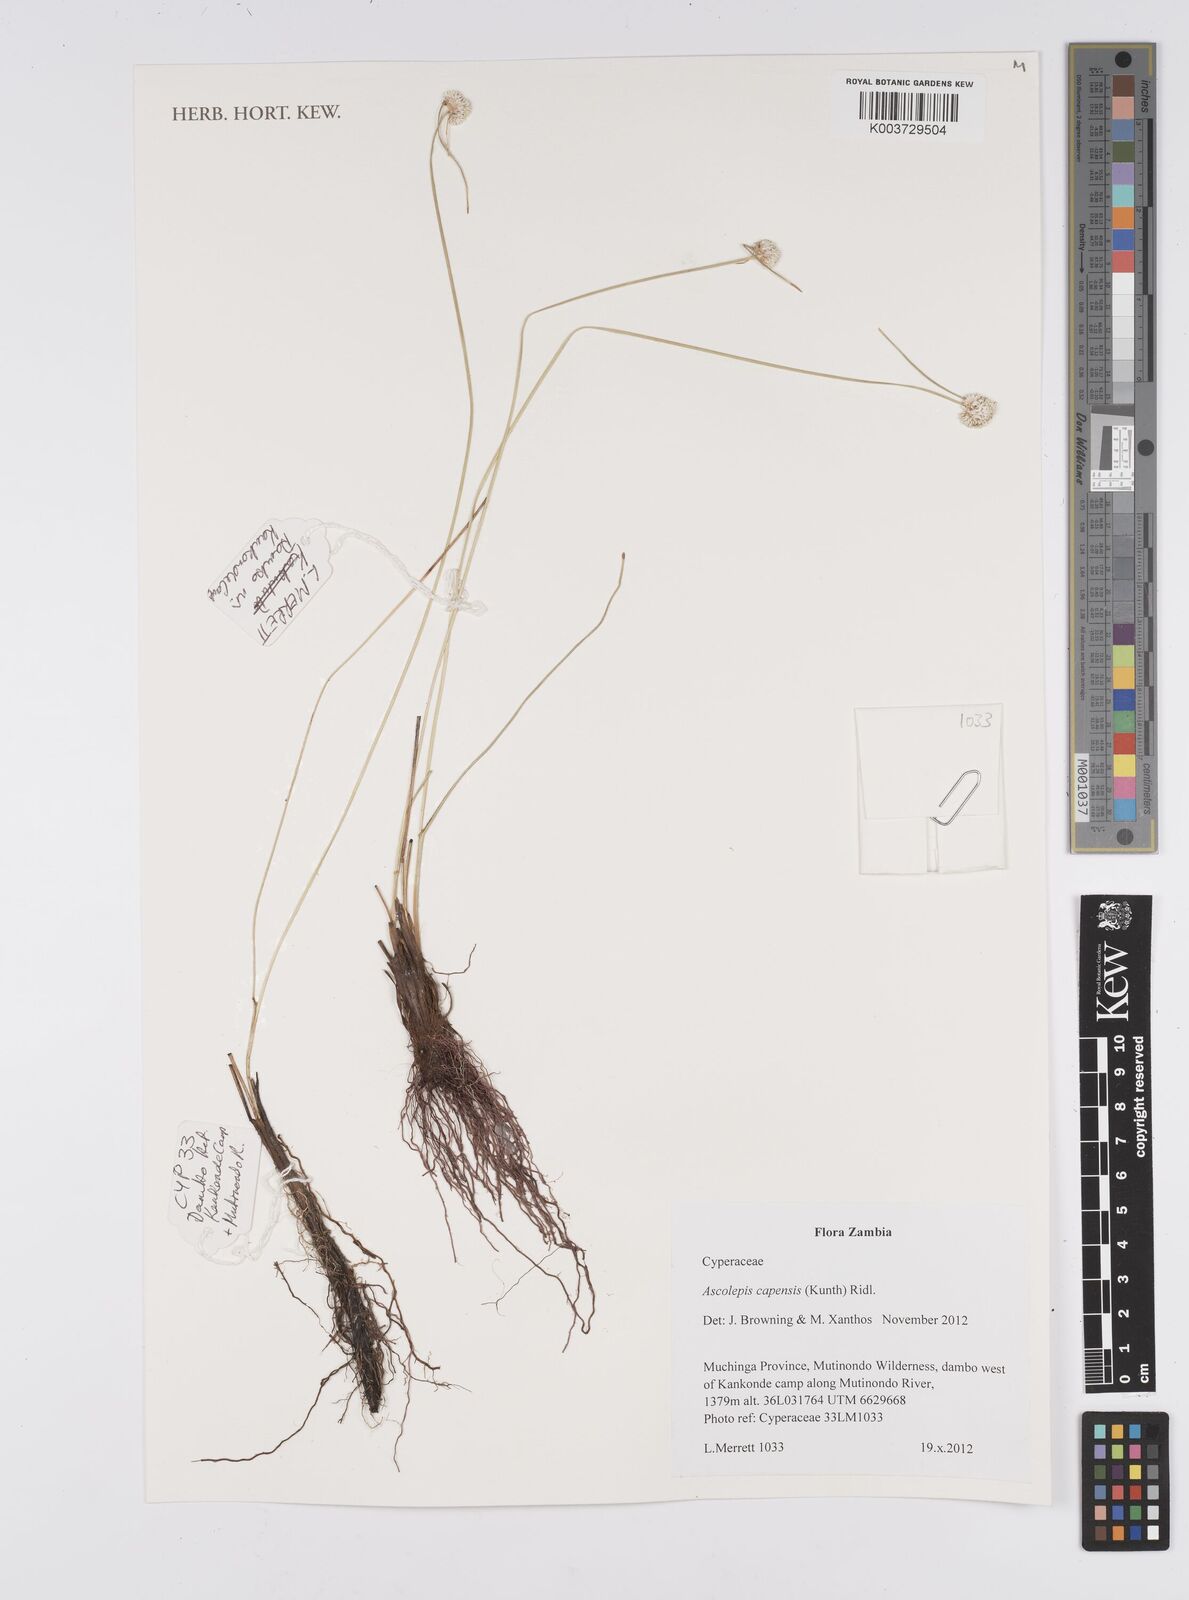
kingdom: Plantae
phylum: Tracheophyta
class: Liliopsida
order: Poales
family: Cyperaceae
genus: Cyperus
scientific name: Cyperus
